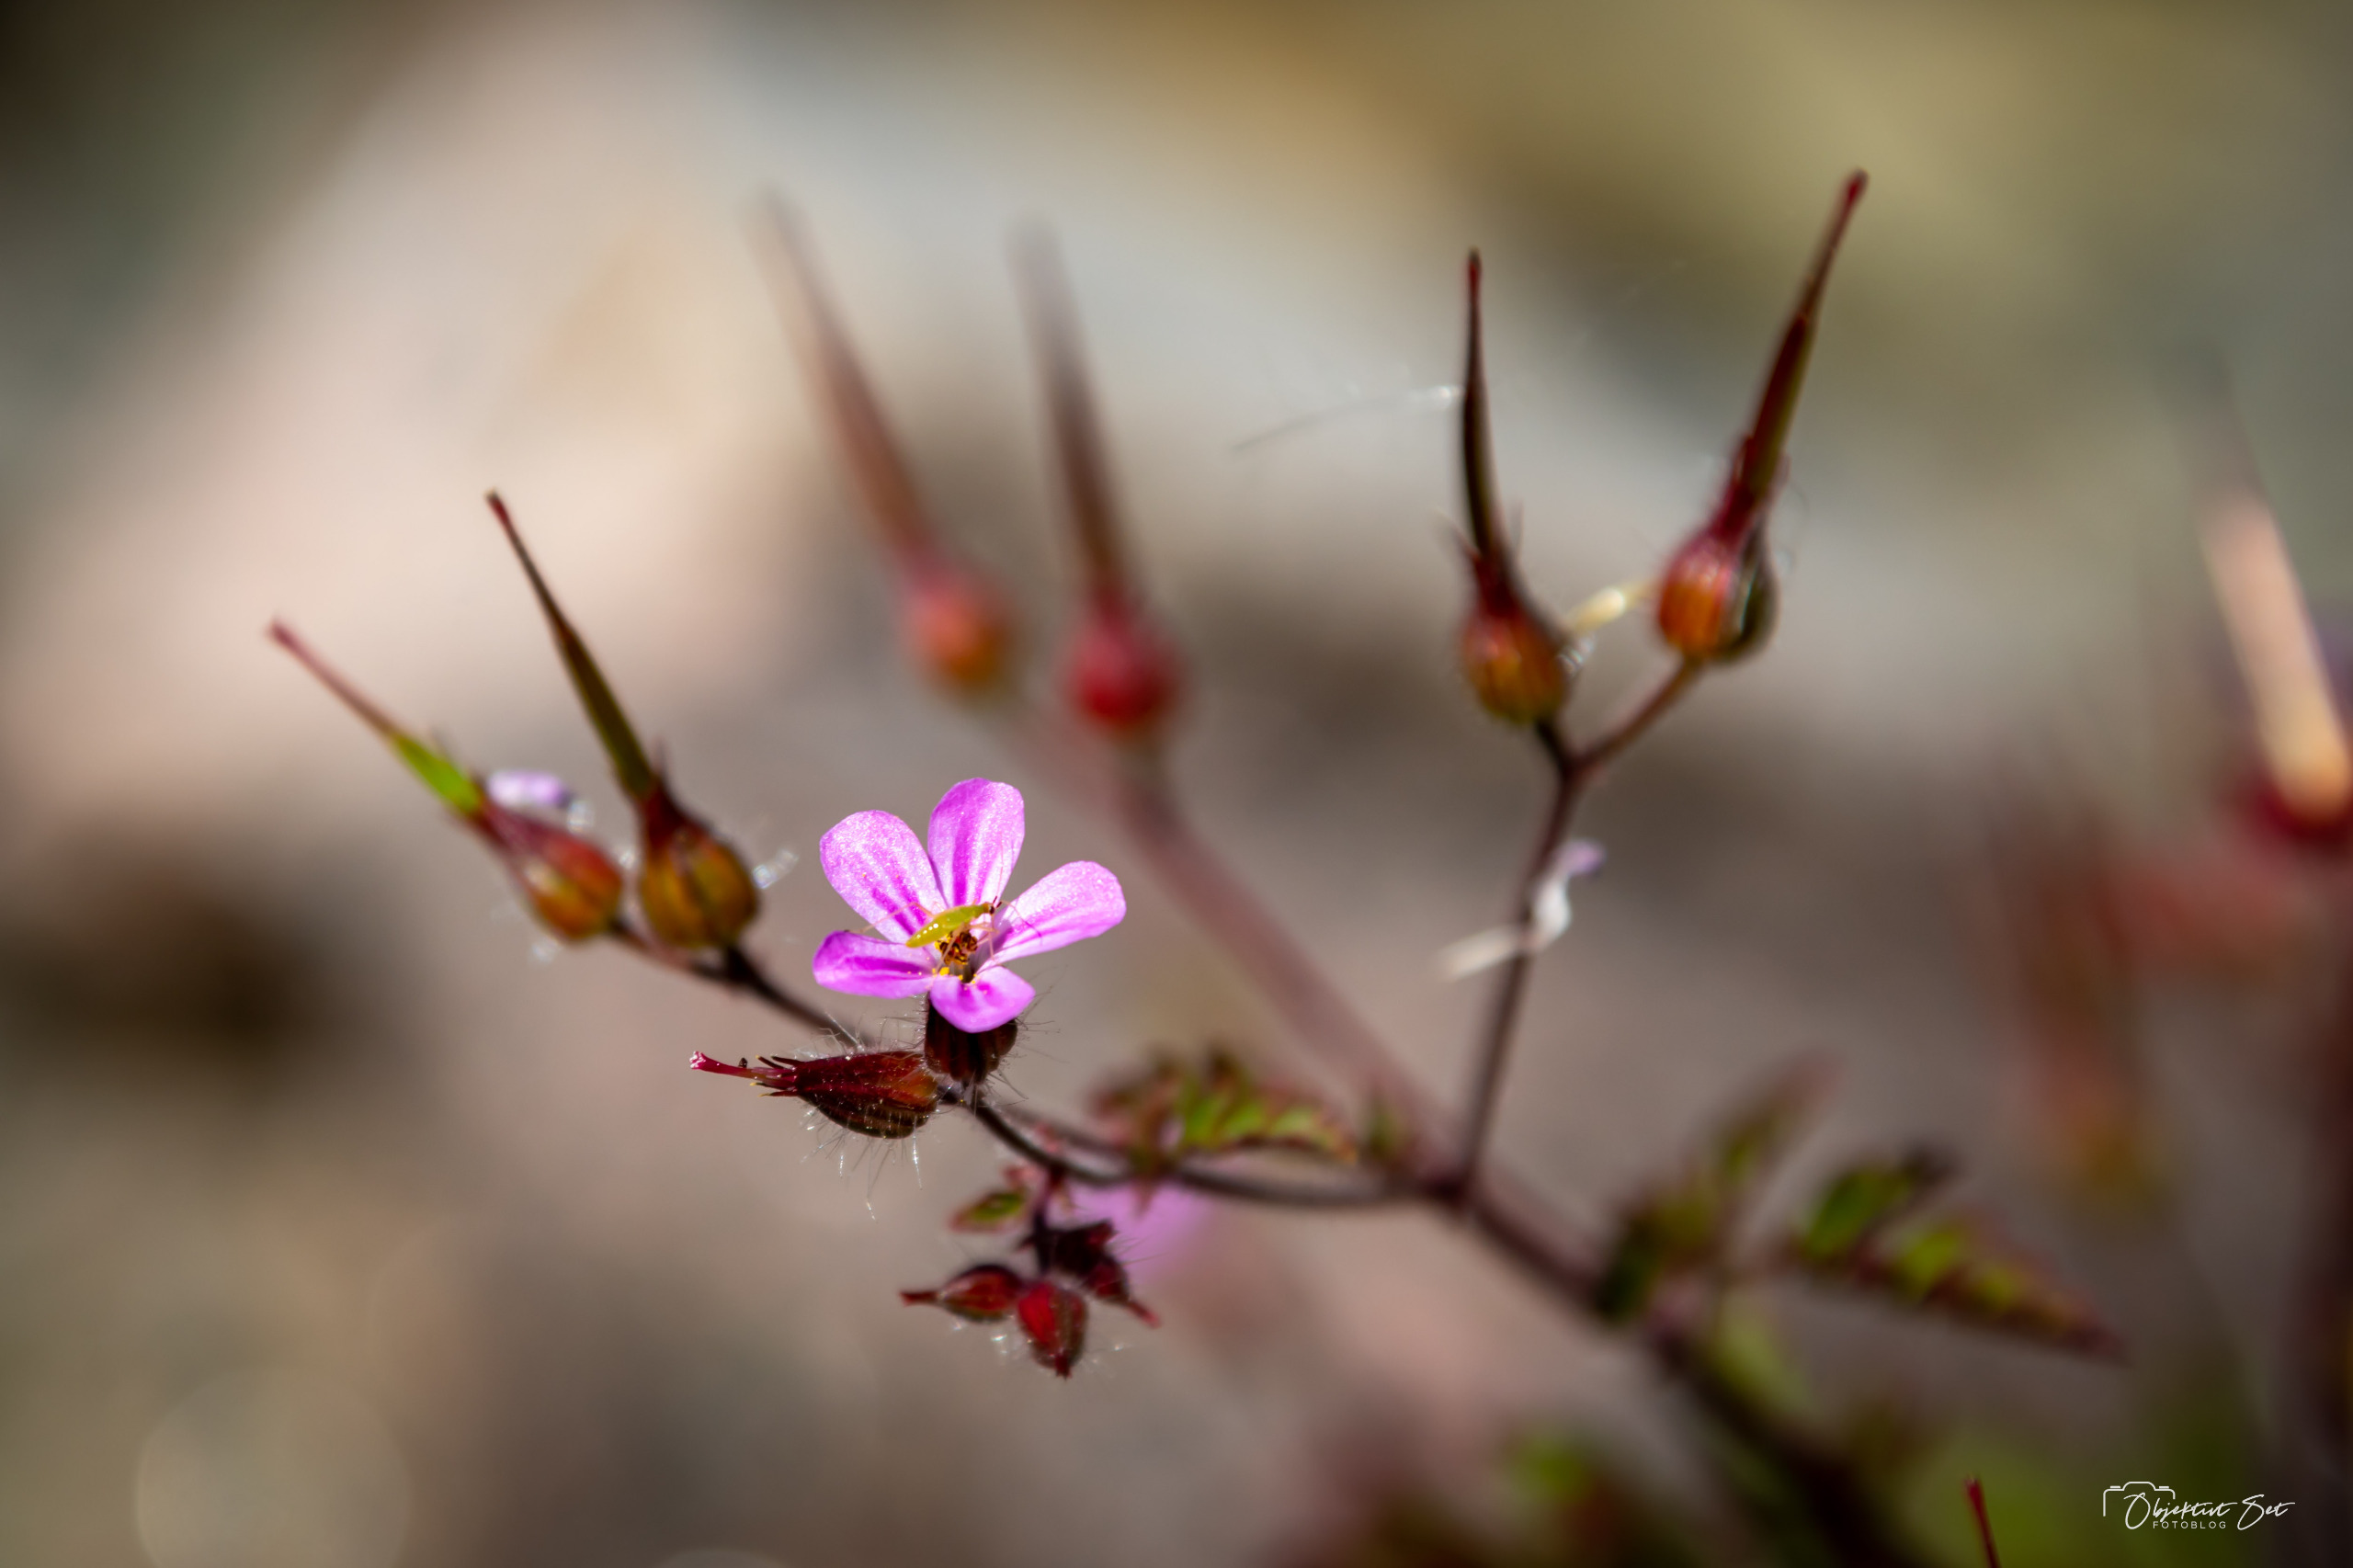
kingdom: Plantae
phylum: Tracheophyta
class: Magnoliopsida
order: Geraniales
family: Geraniaceae
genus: Geranium
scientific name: Geranium robertianum
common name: Stinkende storkenæb
